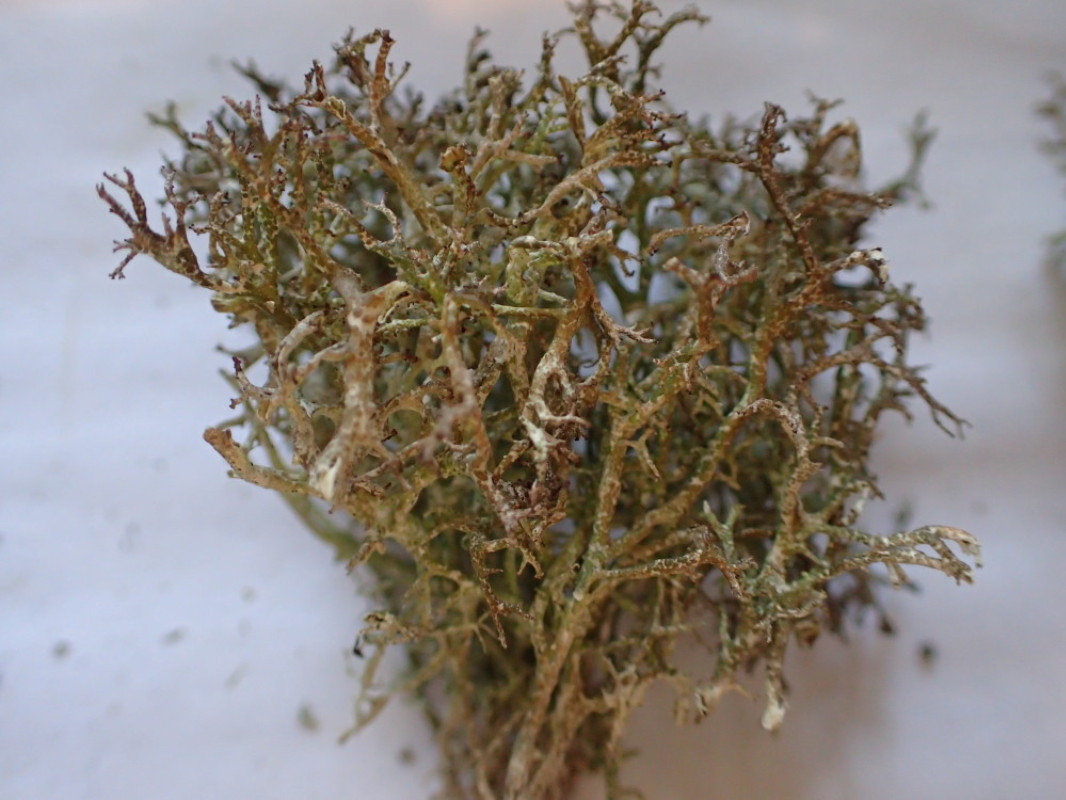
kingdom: Fungi
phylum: Ascomycota
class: Lecanoromycetes
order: Lecanorales
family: Cladoniaceae
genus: Cladonia
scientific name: Cladonia rangiformis
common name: spættet bægerlav
